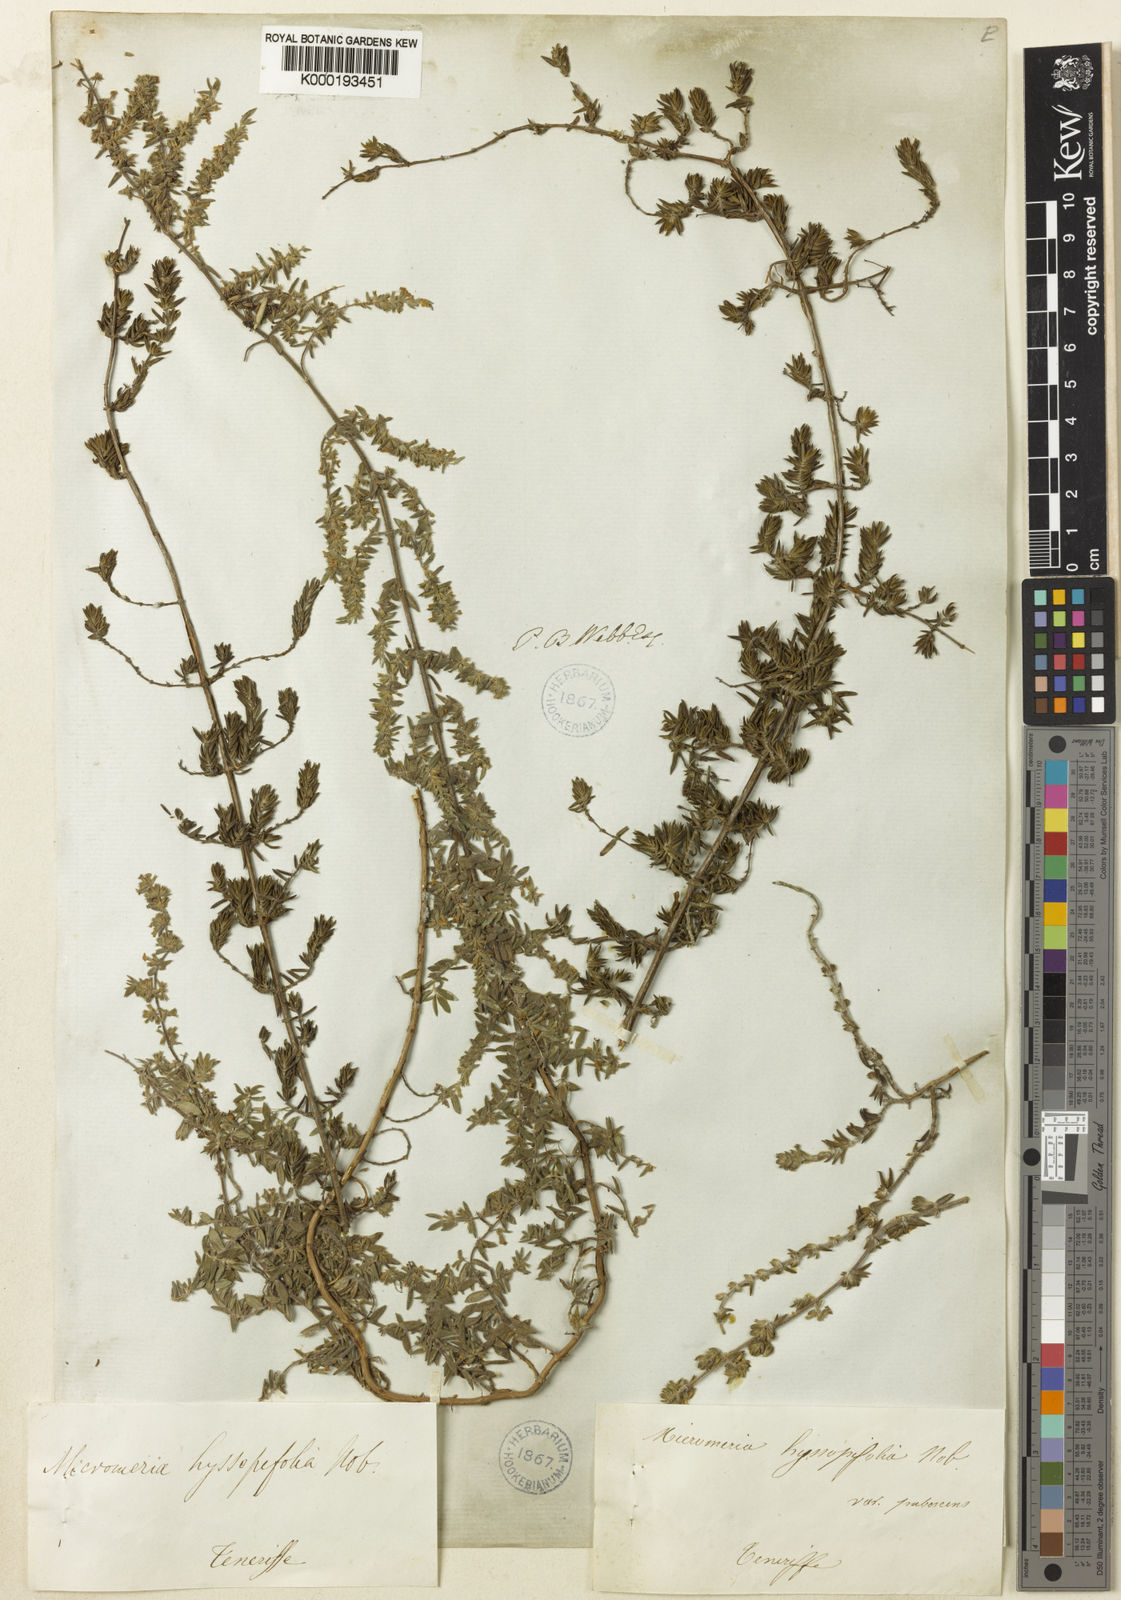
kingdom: Plantae
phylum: Tracheophyta
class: Magnoliopsida
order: Lamiales
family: Lamiaceae
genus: Micromeria
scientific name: Micromeria ericifolia
